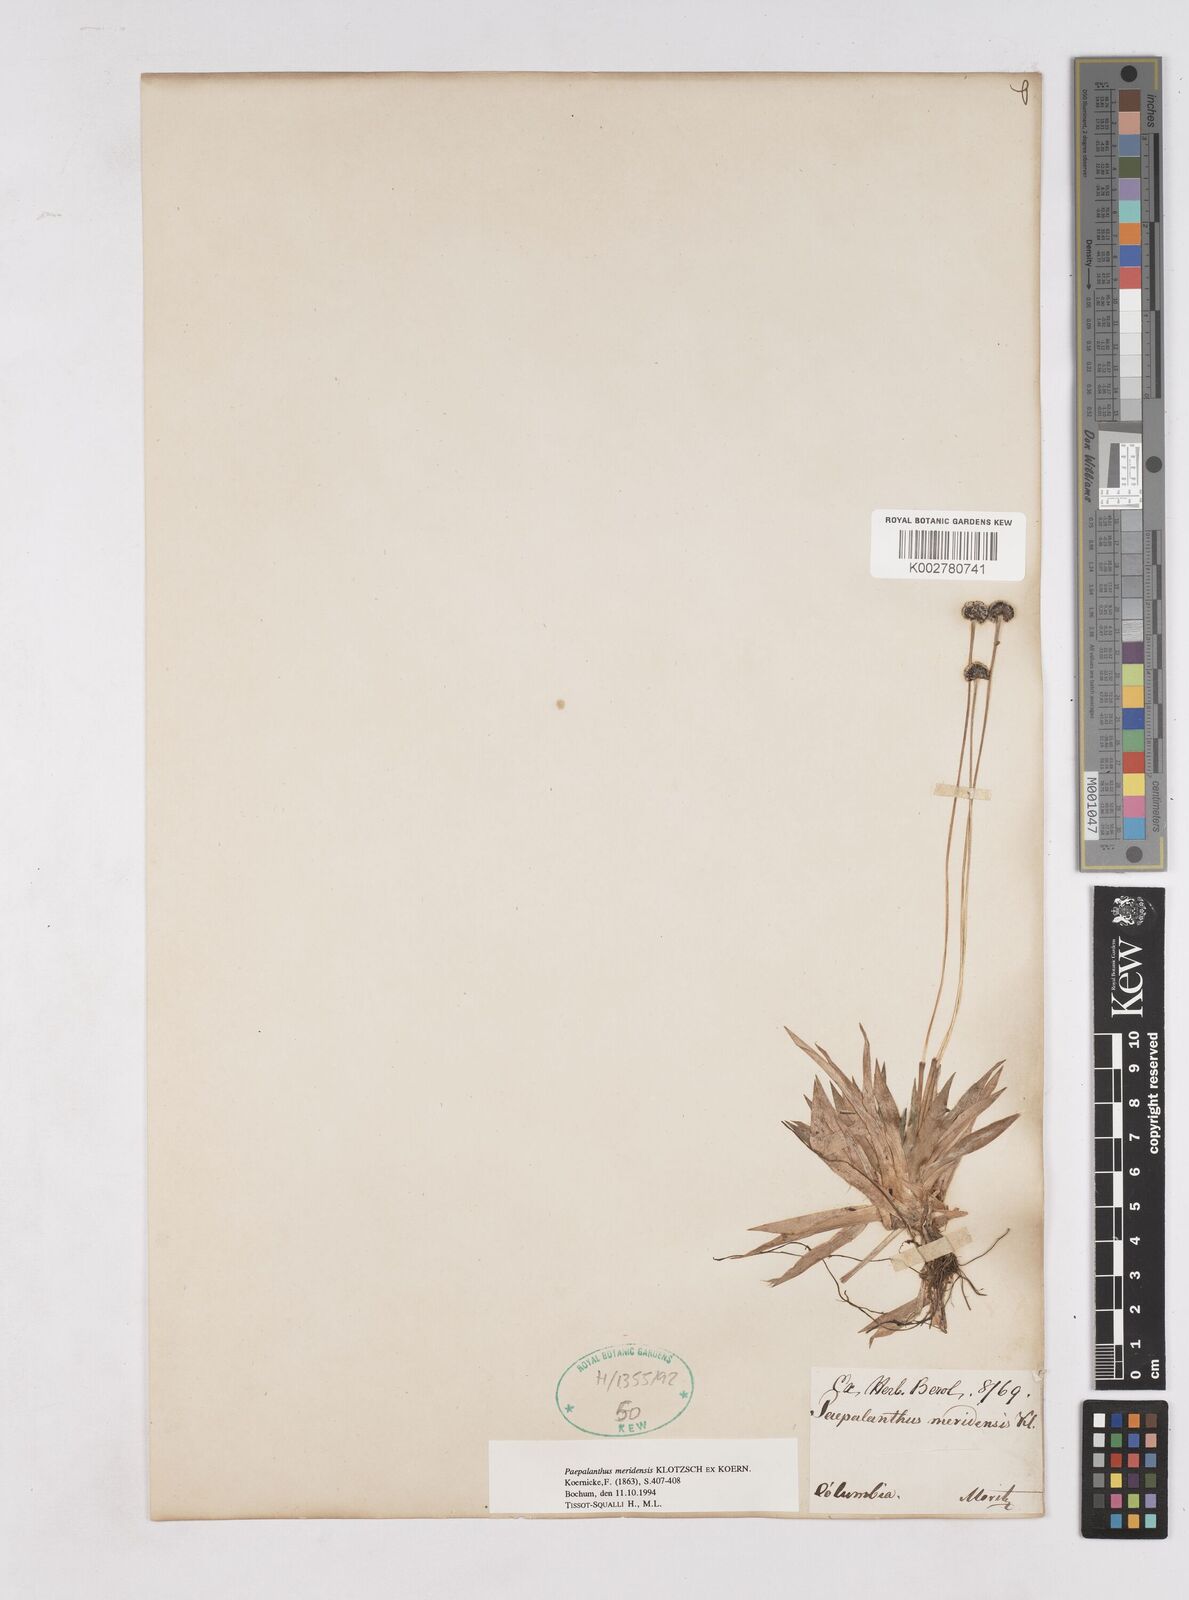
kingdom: Plantae
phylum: Tracheophyta
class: Liliopsida
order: Poales
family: Eriocaulaceae
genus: Paepalanthus
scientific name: Paepalanthus meridensis
